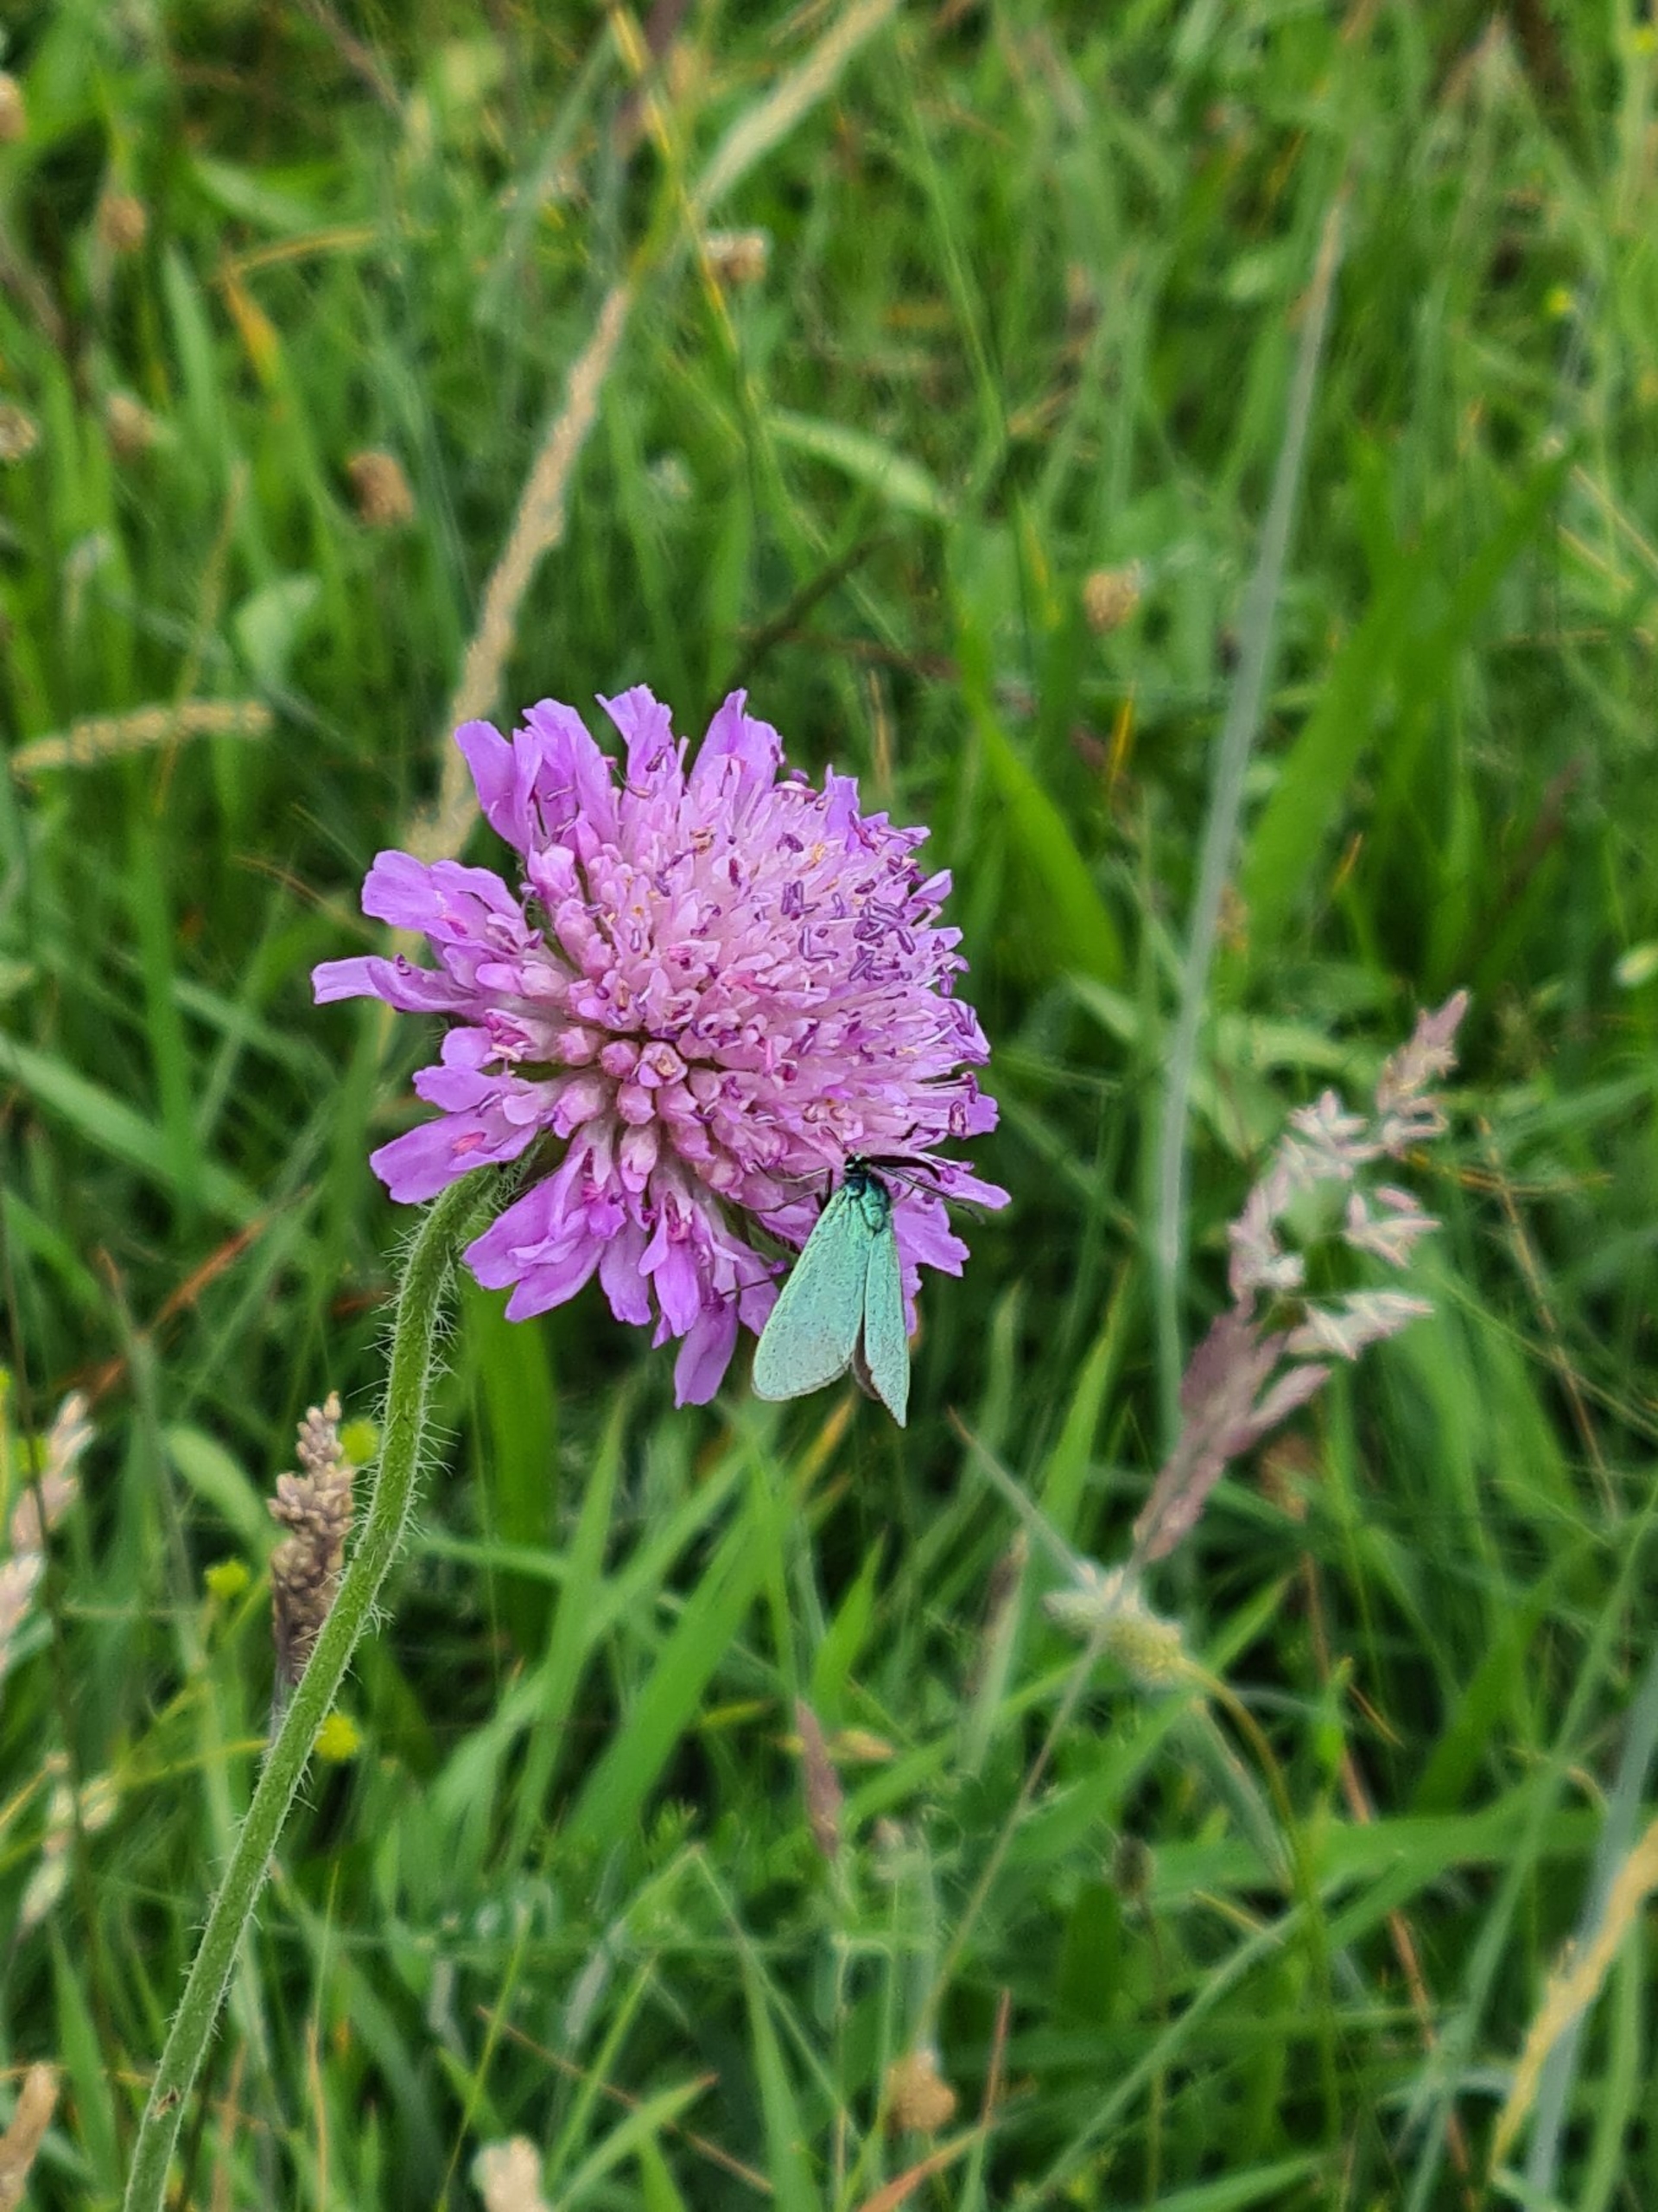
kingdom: Animalia
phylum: Arthropoda
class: Insecta
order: Lepidoptera
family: Zygaenidae
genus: Adscita
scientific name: Adscita statices
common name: Metalvinge
